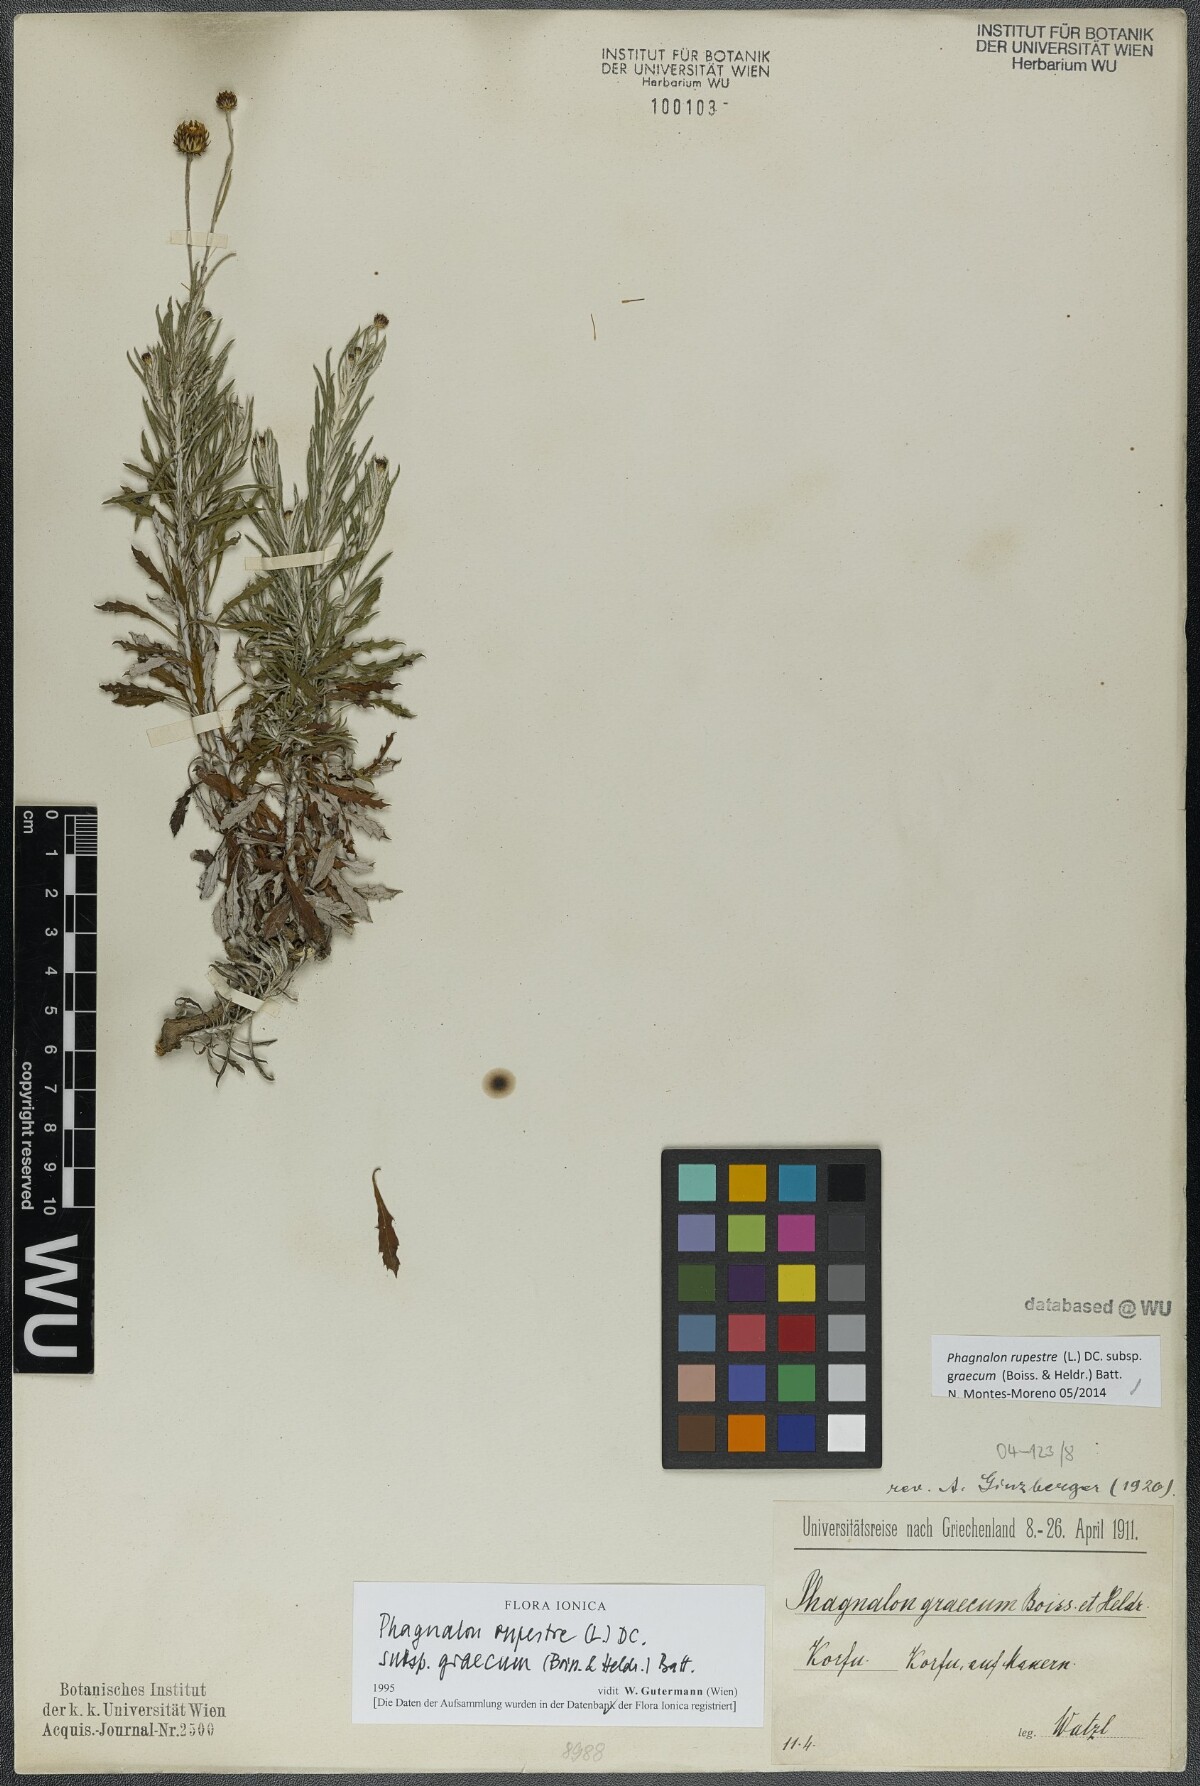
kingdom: Plantae
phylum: Tracheophyta
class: Magnoliopsida
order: Asterales
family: Asteraceae
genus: Phagnalon
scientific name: Phagnalon graecum
